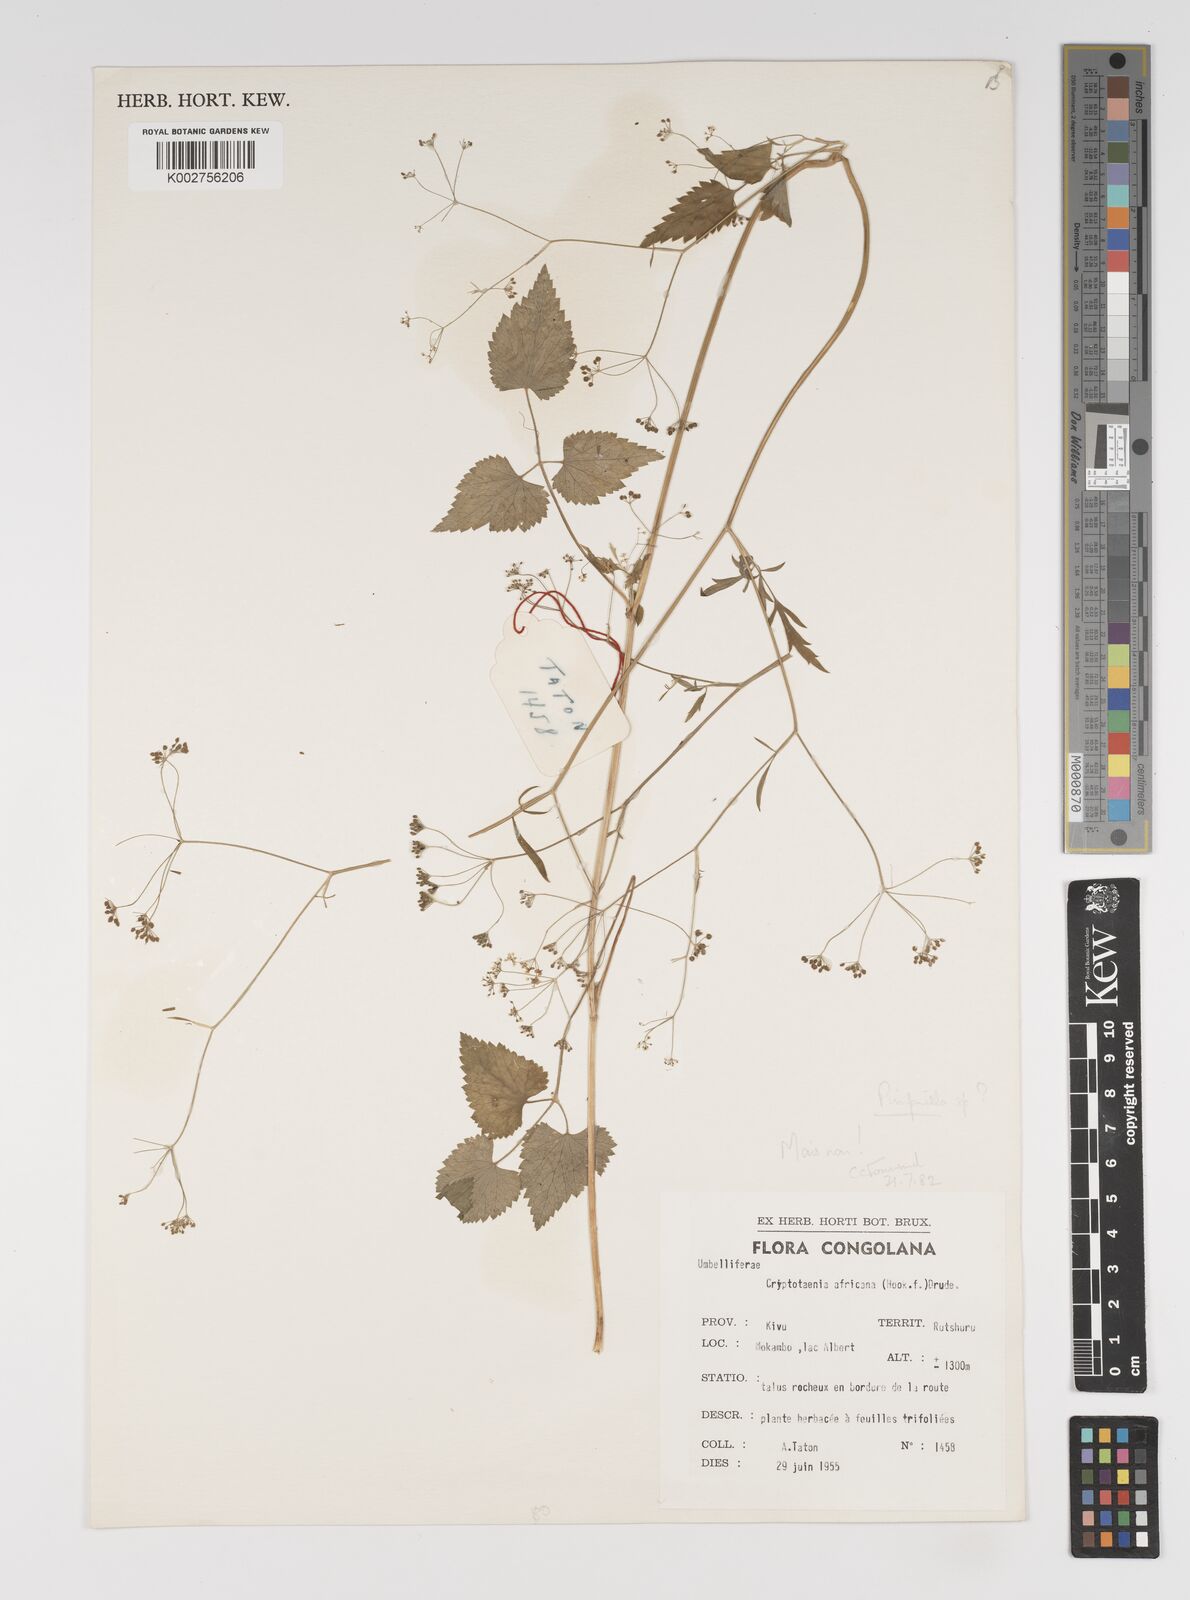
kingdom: Plantae
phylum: Tracheophyta
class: Magnoliopsida
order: Apiales
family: Apiaceae
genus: Pimpinella
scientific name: Pimpinella
